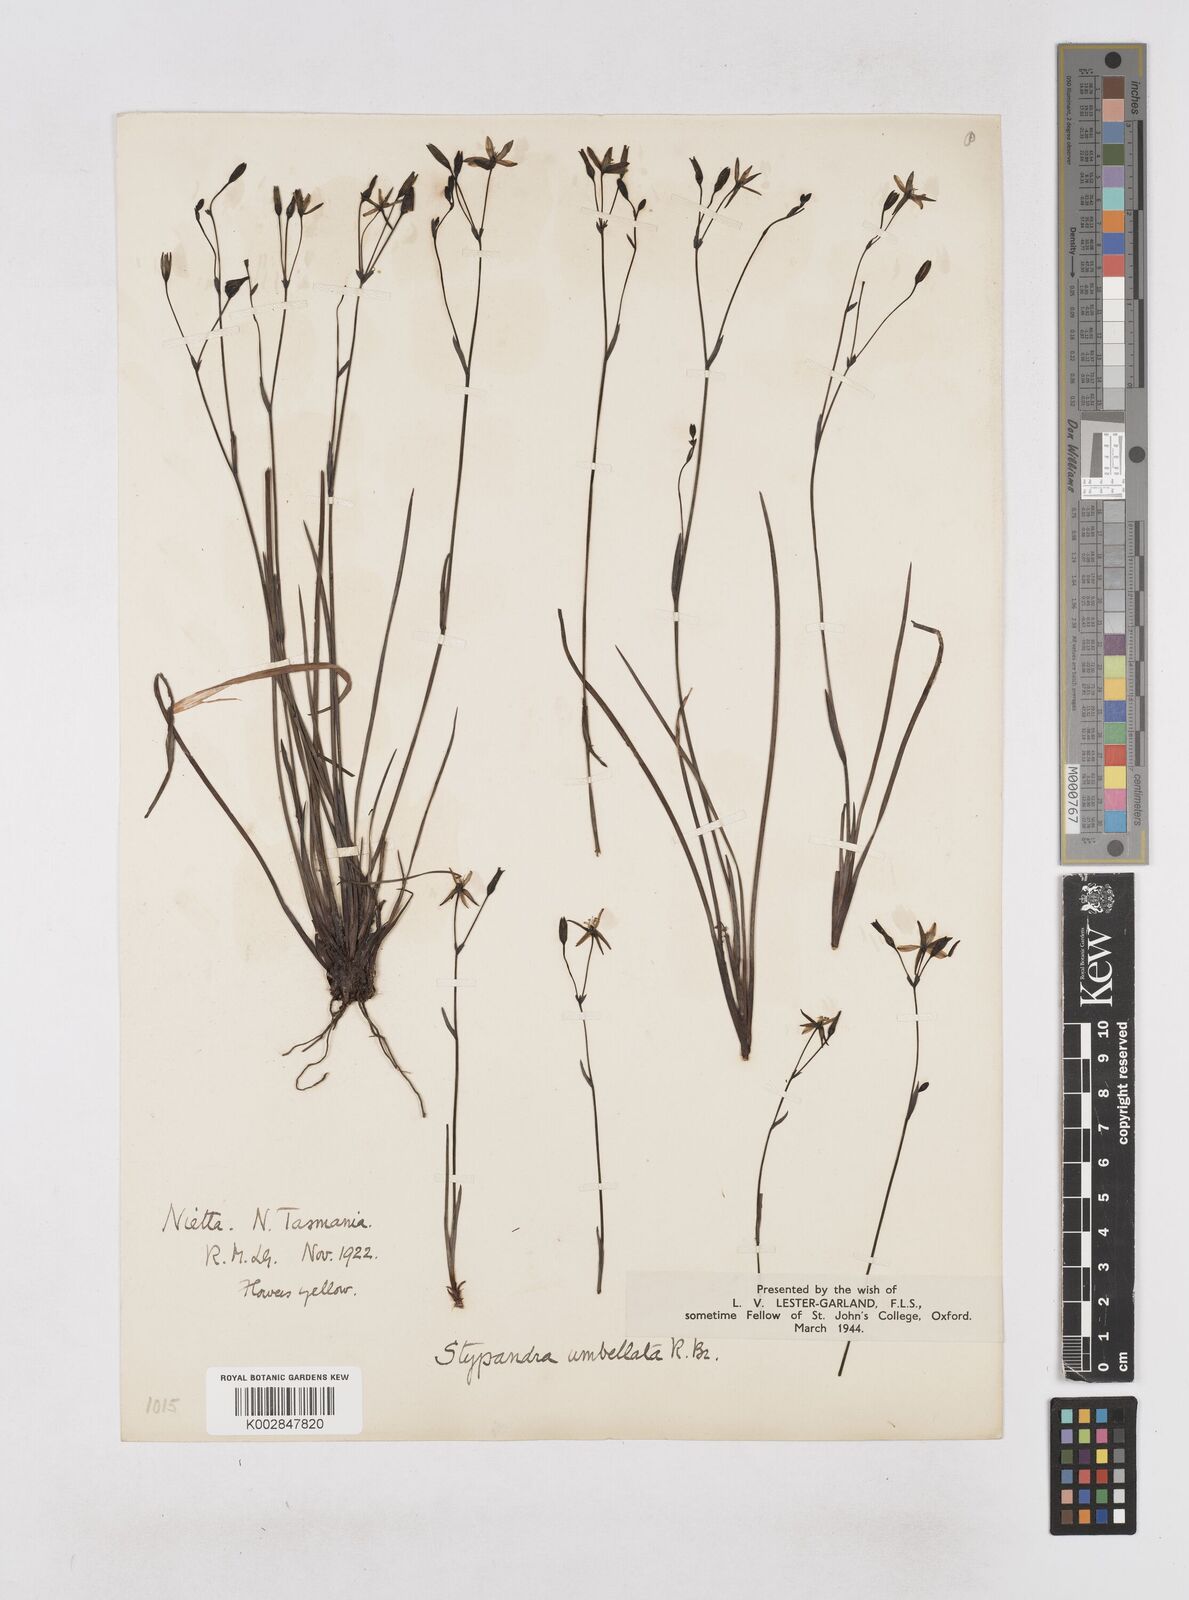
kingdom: Plantae
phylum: Tracheophyta
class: Liliopsida
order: Asparagales
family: Asphodelaceae
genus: Thelionema
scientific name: Thelionema umbellatum
